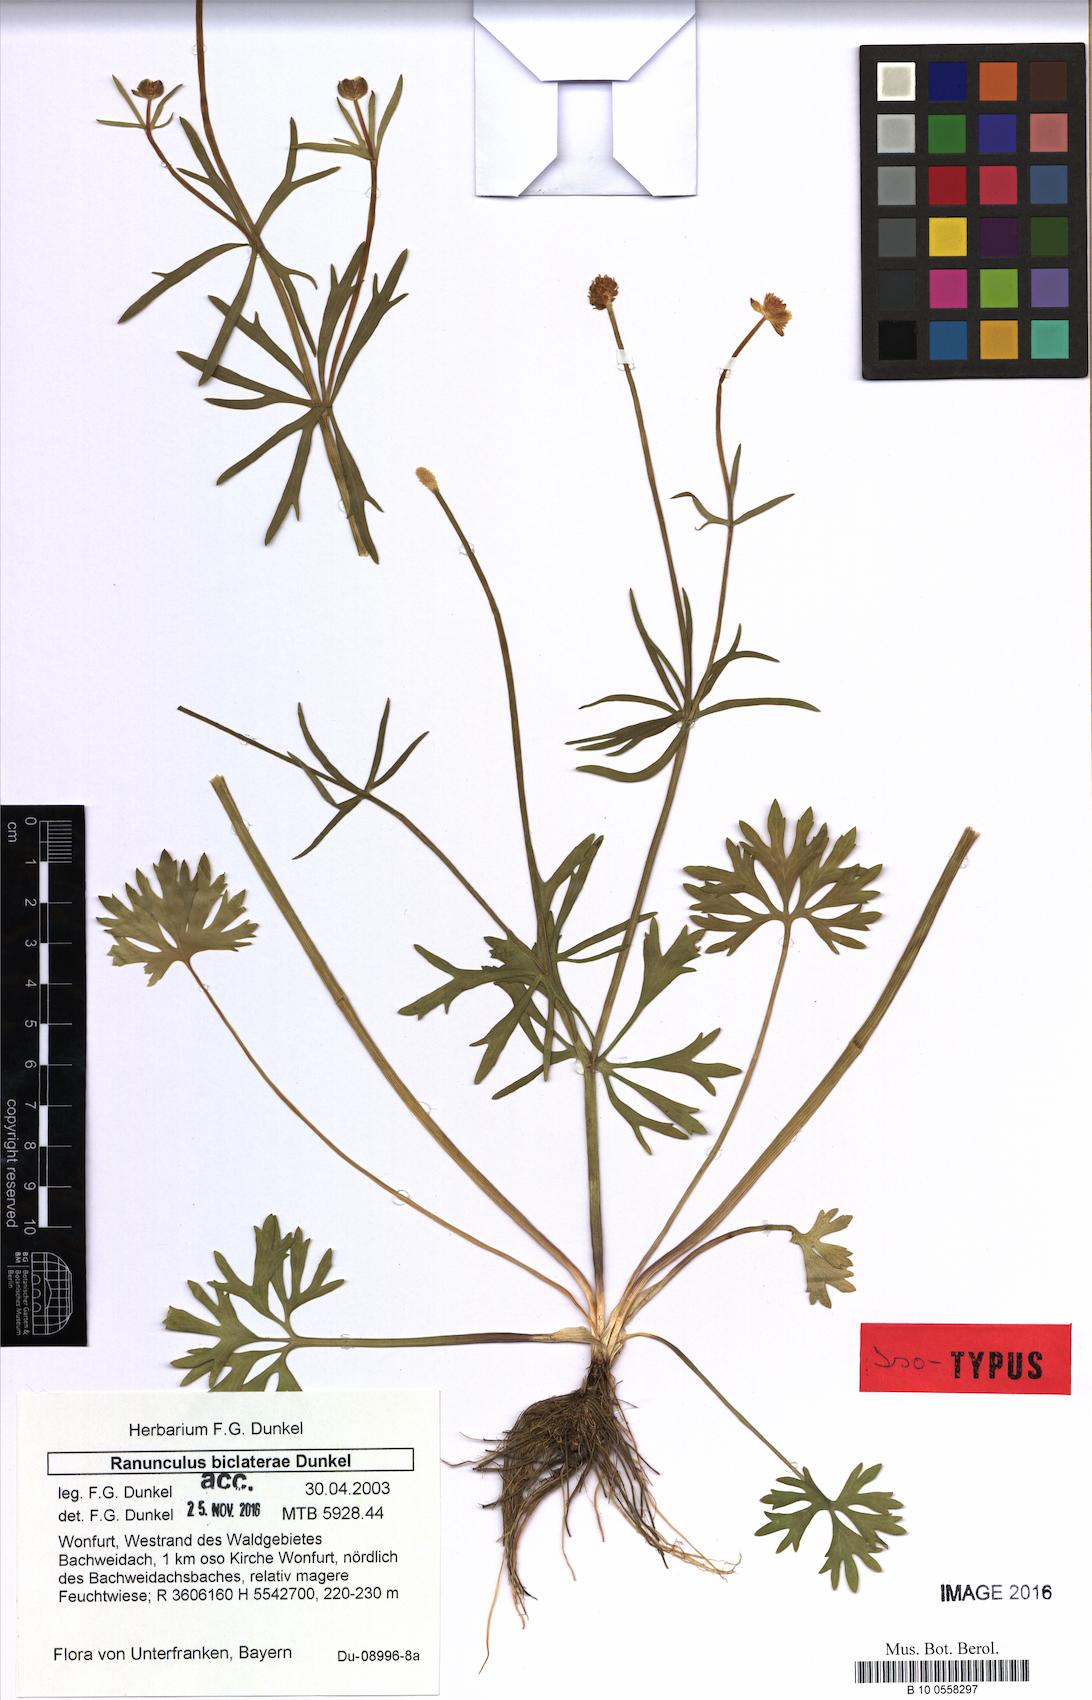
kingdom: Plantae
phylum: Tracheophyta
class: Magnoliopsida
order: Ranunculales
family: Ranunculaceae
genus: Ranunculus
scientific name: Ranunculus biclaterae
